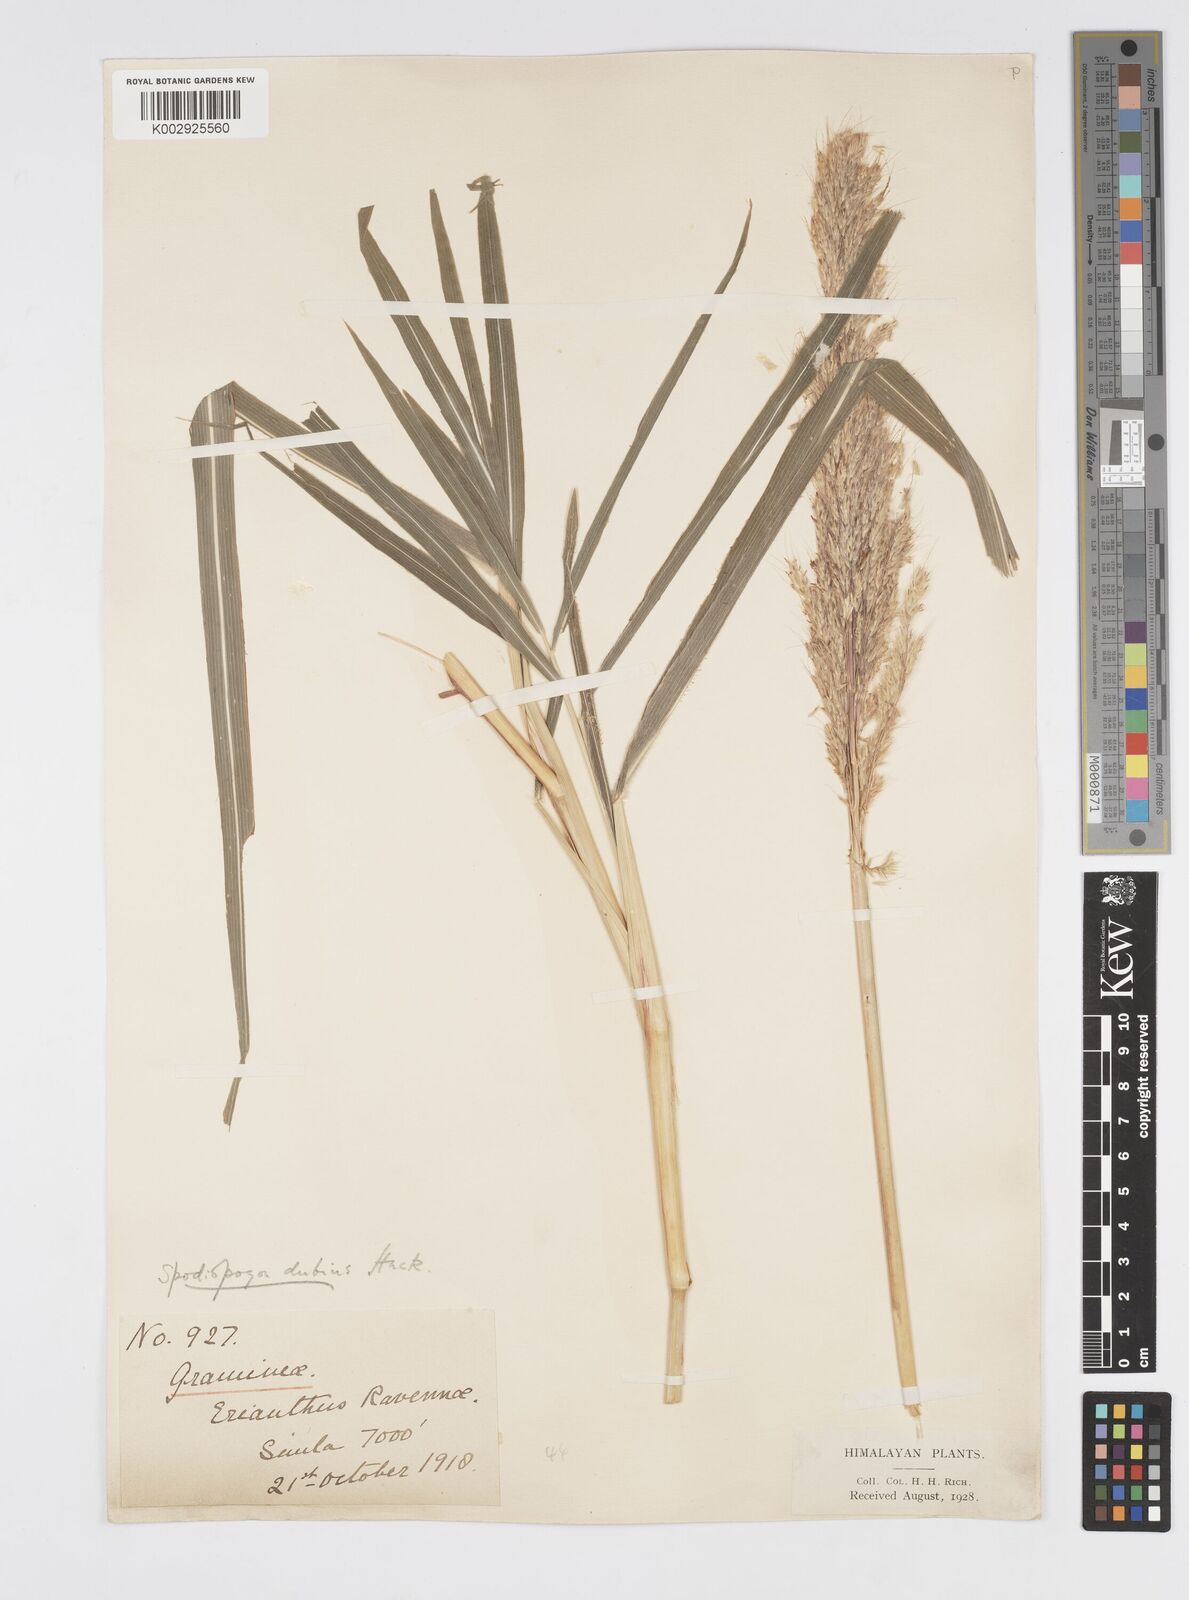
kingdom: Plantae
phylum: Tracheophyta
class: Liliopsida
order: Poales
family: Poaceae
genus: Spodiopogon
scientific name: Spodiopogon dubius
